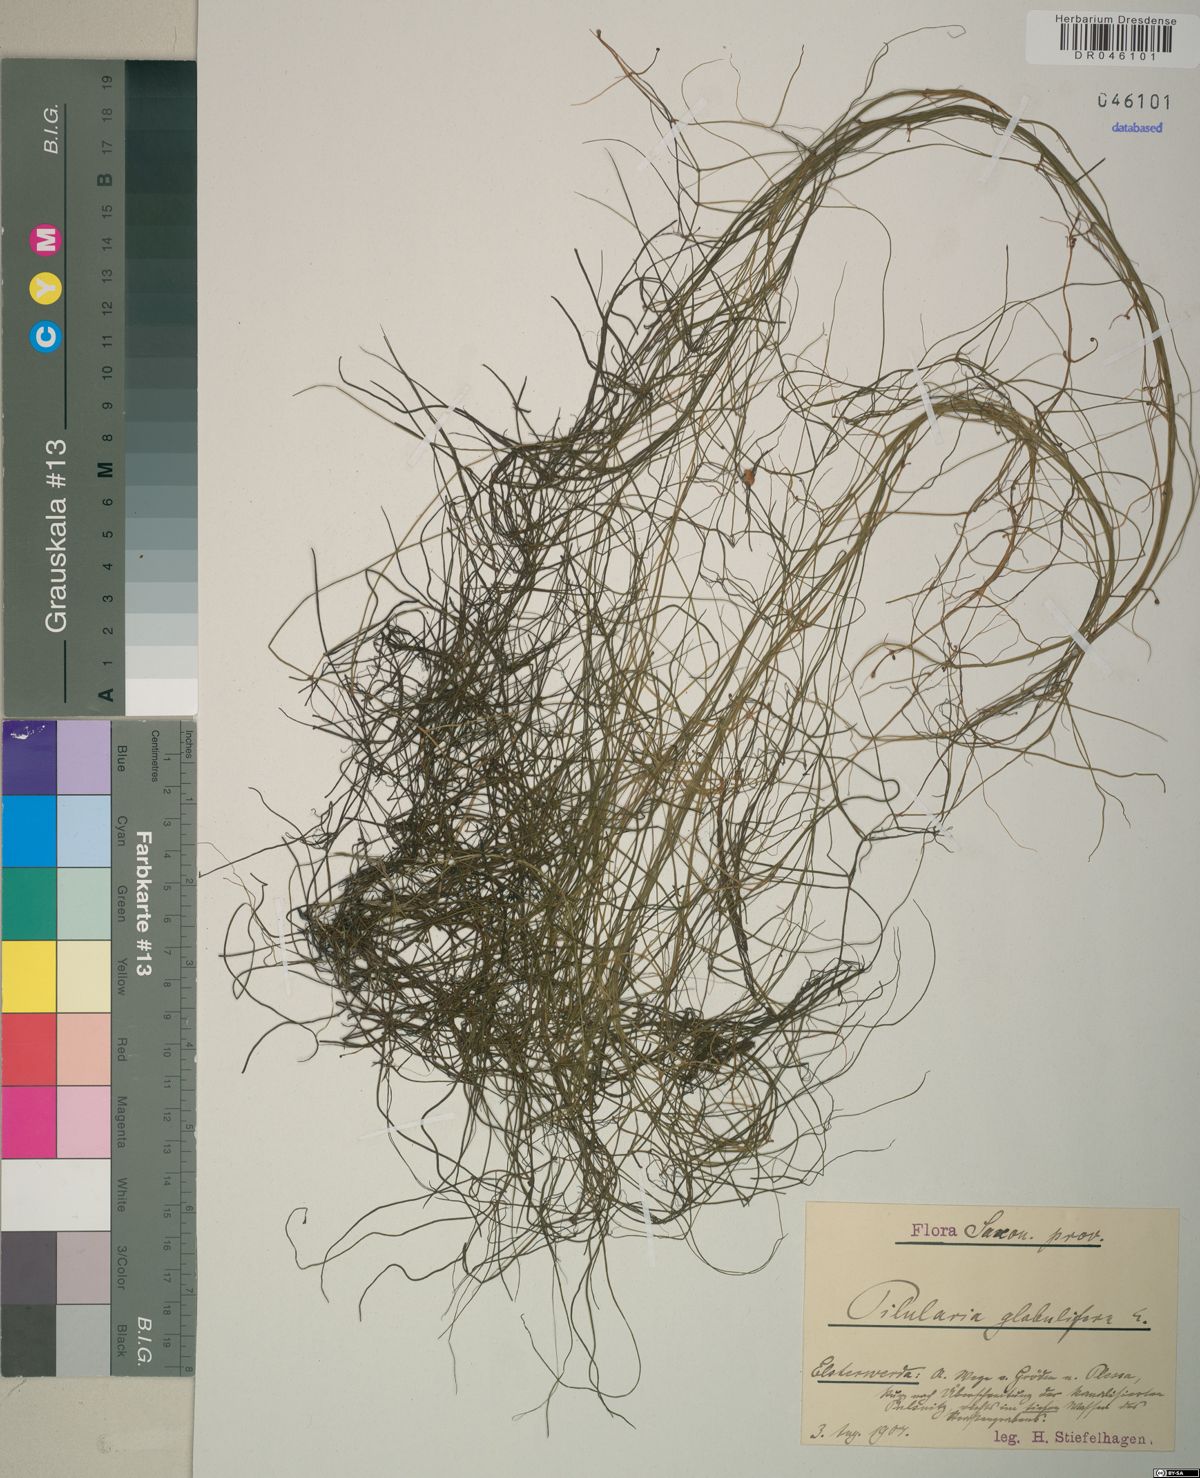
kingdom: Plantae
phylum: Tracheophyta
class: Polypodiopsida
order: Salviniales
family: Marsileaceae
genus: Pilularia
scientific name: Pilularia globulifera
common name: Pillwort
